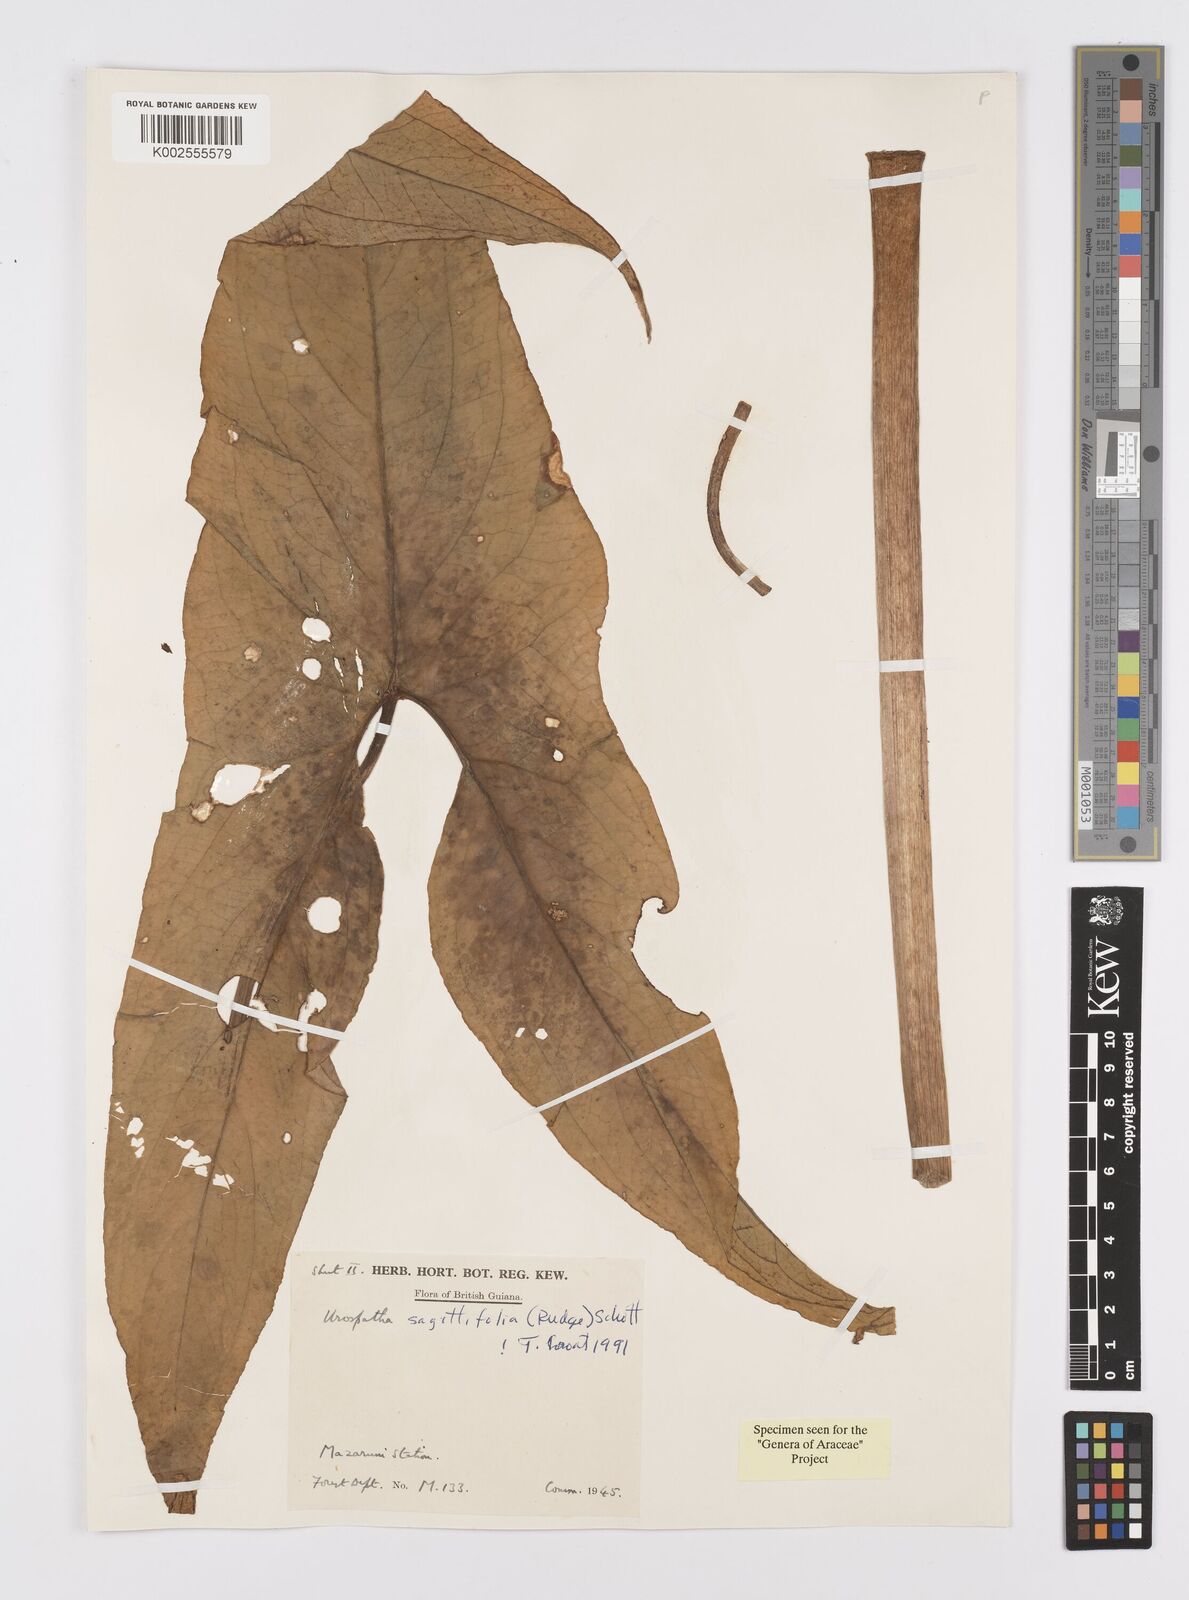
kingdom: Plantae
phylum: Tracheophyta
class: Liliopsida
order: Alismatales
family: Araceae
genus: Urospatha
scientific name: Urospatha sagittifolia
